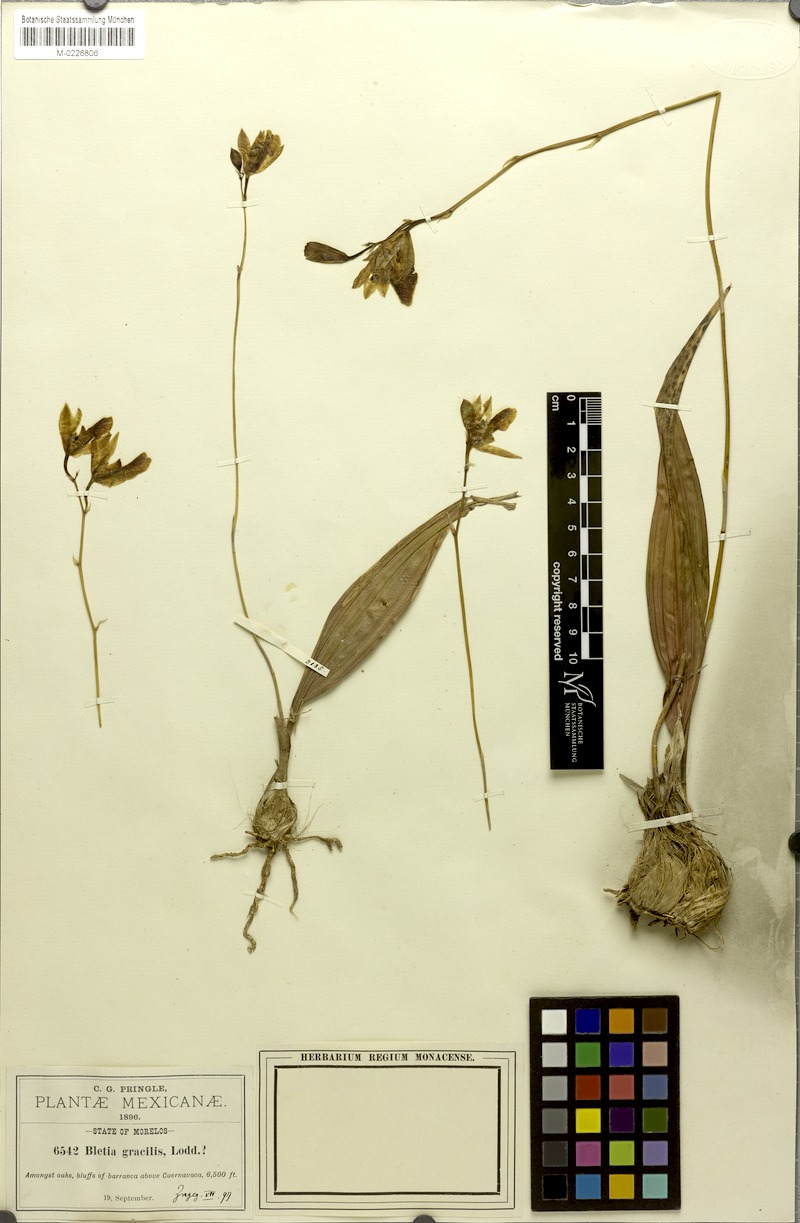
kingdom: Plantae
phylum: Tracheophyta
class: Liliopsida
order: Asparagales
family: Orchidaceae
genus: Bletia
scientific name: Bletia gracilis
